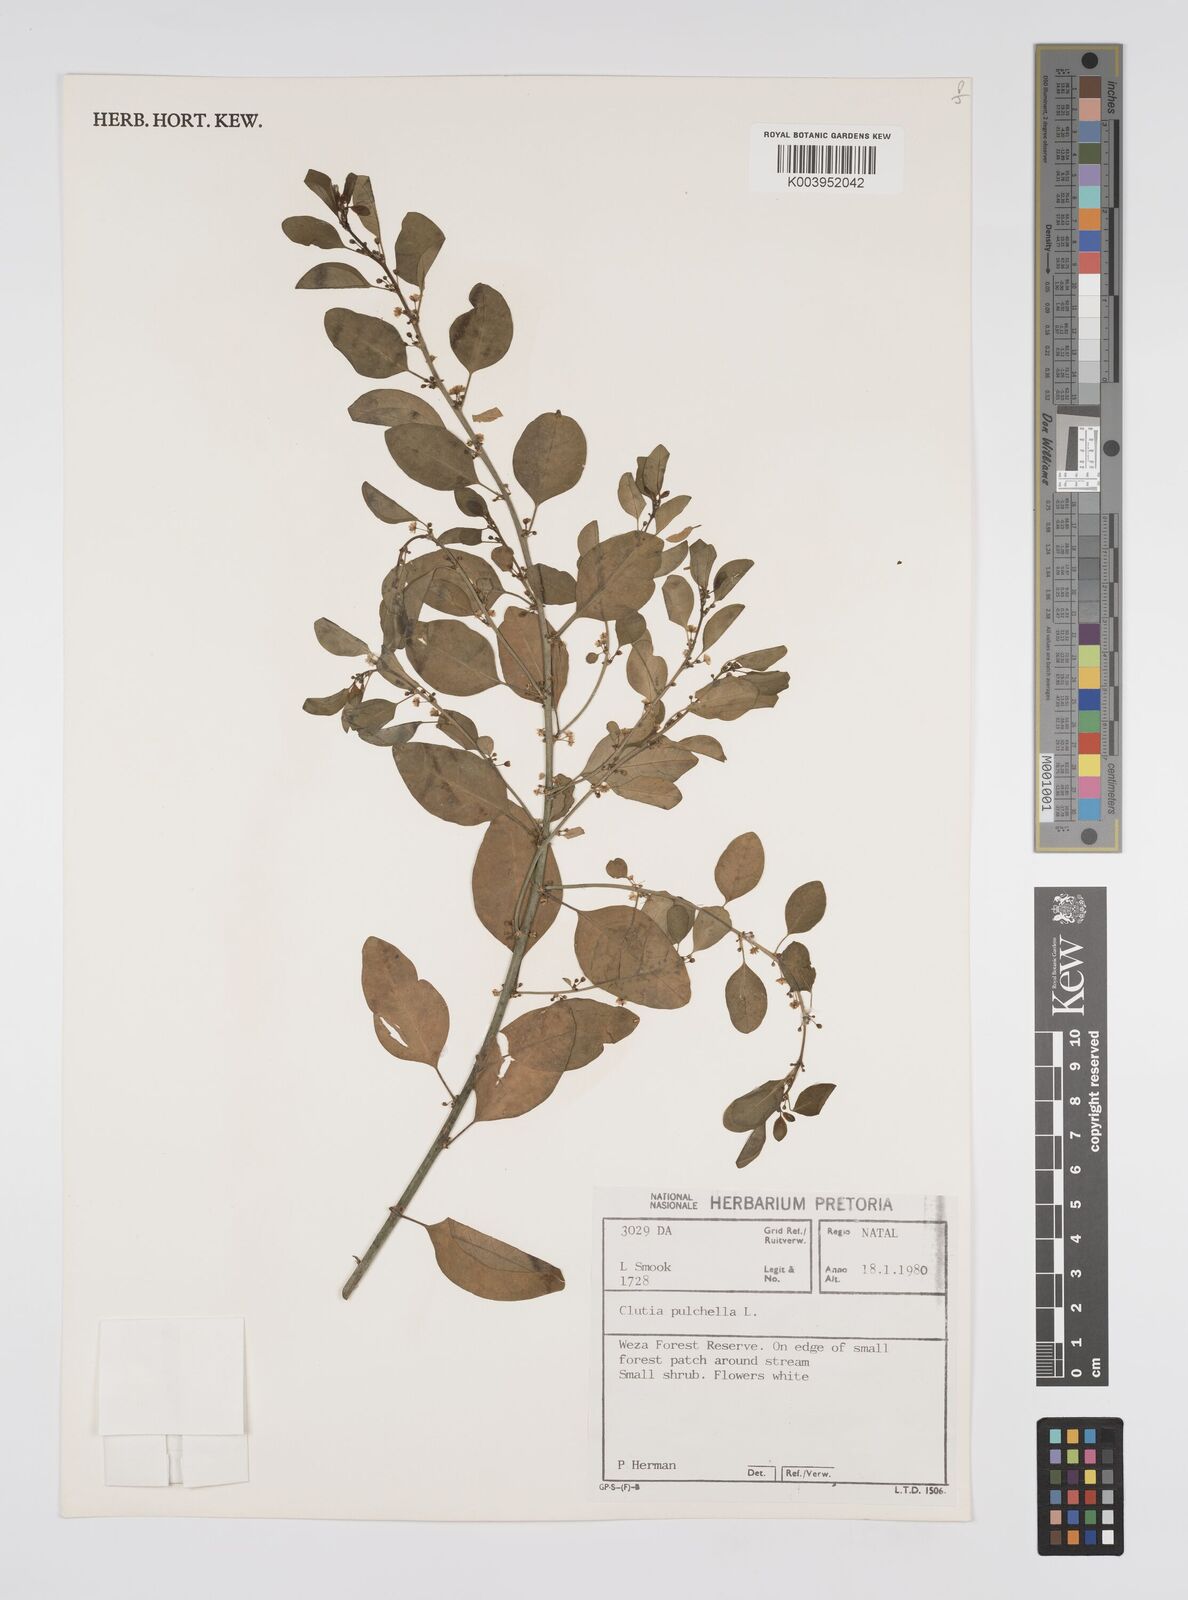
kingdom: Plantae
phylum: Tracheophyta
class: Magnoliopsida
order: Malpighiales
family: Peraceae
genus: Clutia
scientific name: Clutia pulchella
